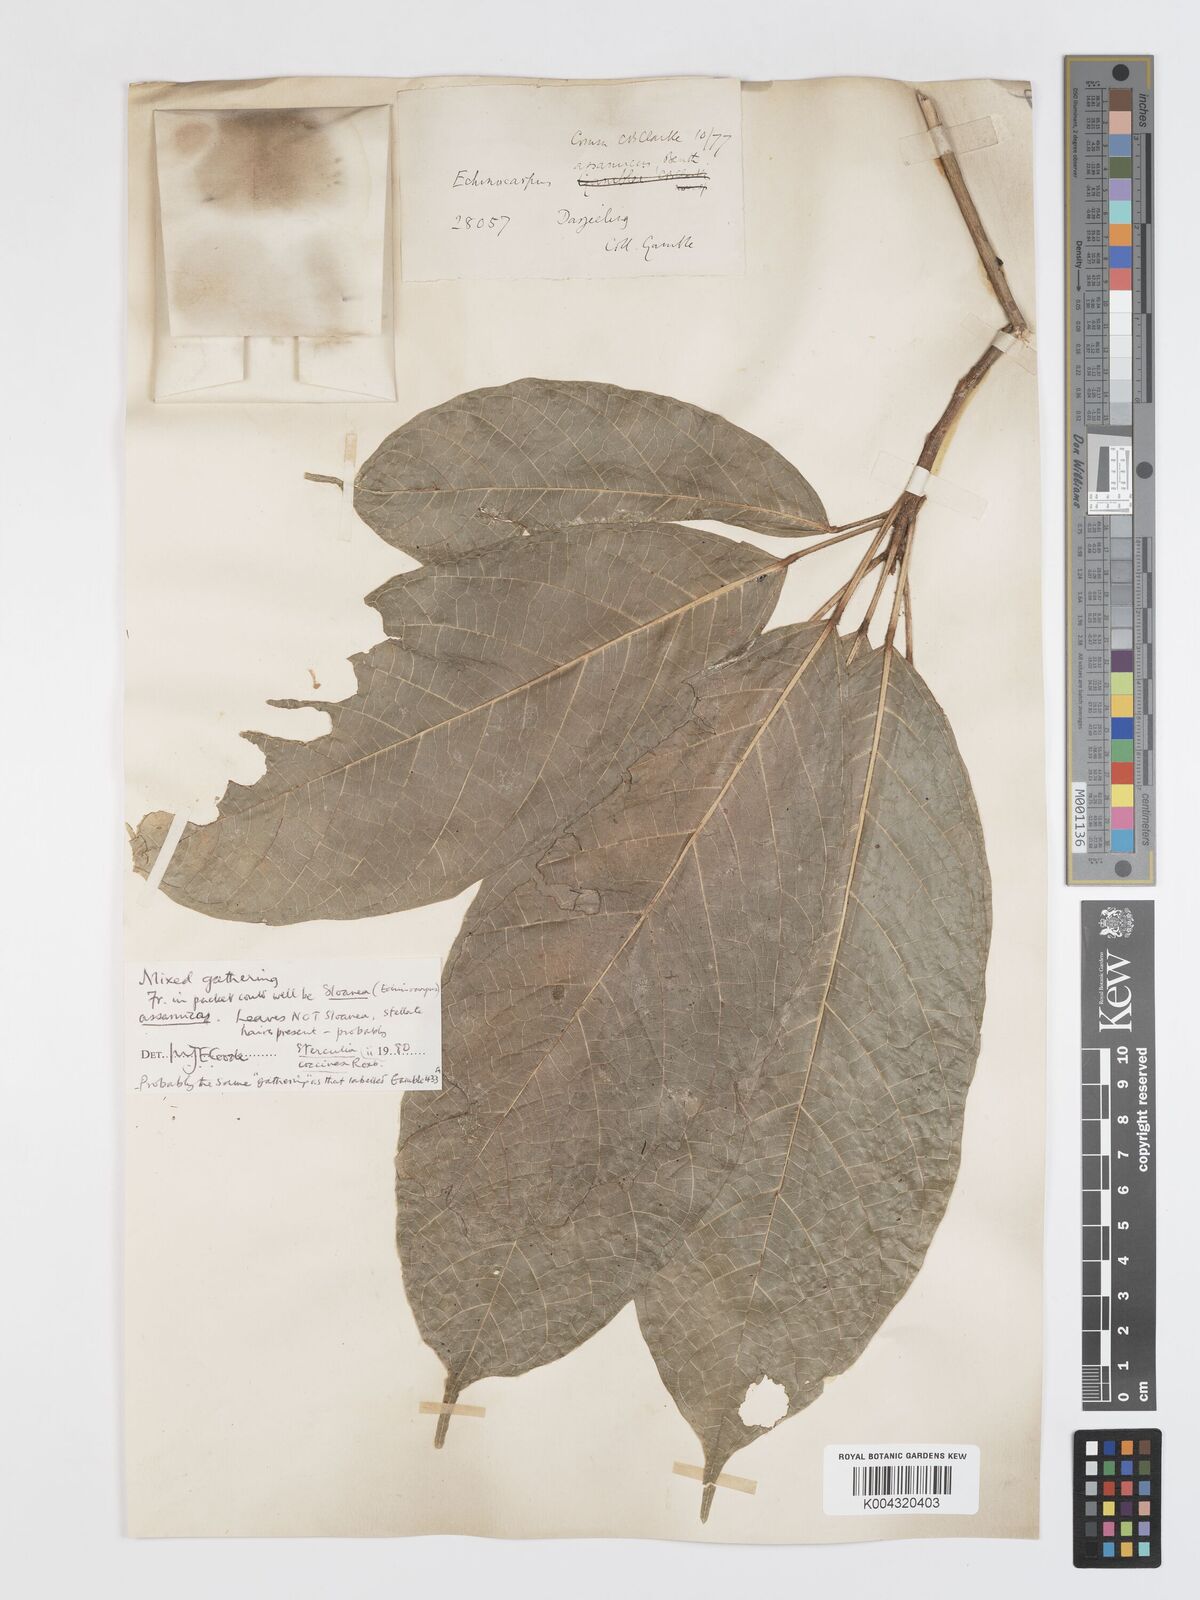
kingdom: Plantae
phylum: Tracheophyta
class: Magnoliopsida
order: Oxalidales
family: Elaeocarpaceae
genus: Sloanea
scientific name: Sloanea sterculiacea
